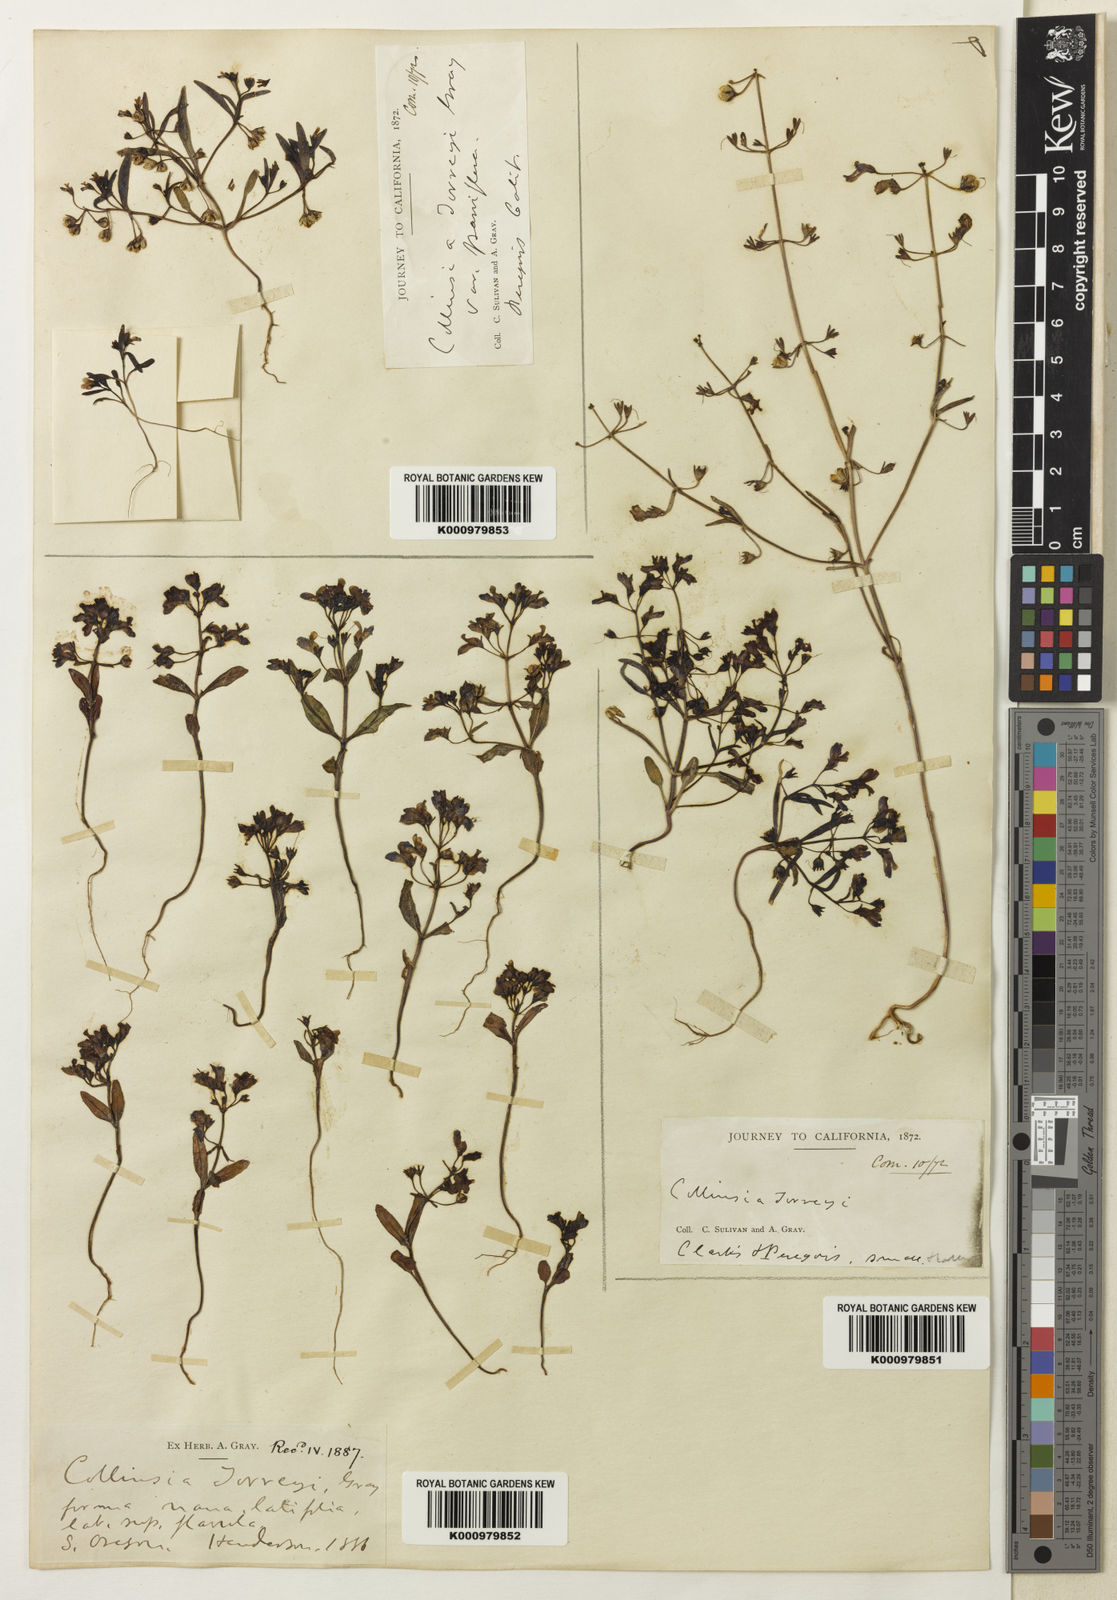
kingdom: Plantae
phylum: Tracheophyta
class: Magnoliopsida
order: Lamiales
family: Plantaginaceae
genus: Collinsia
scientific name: Collinsia torreyi
